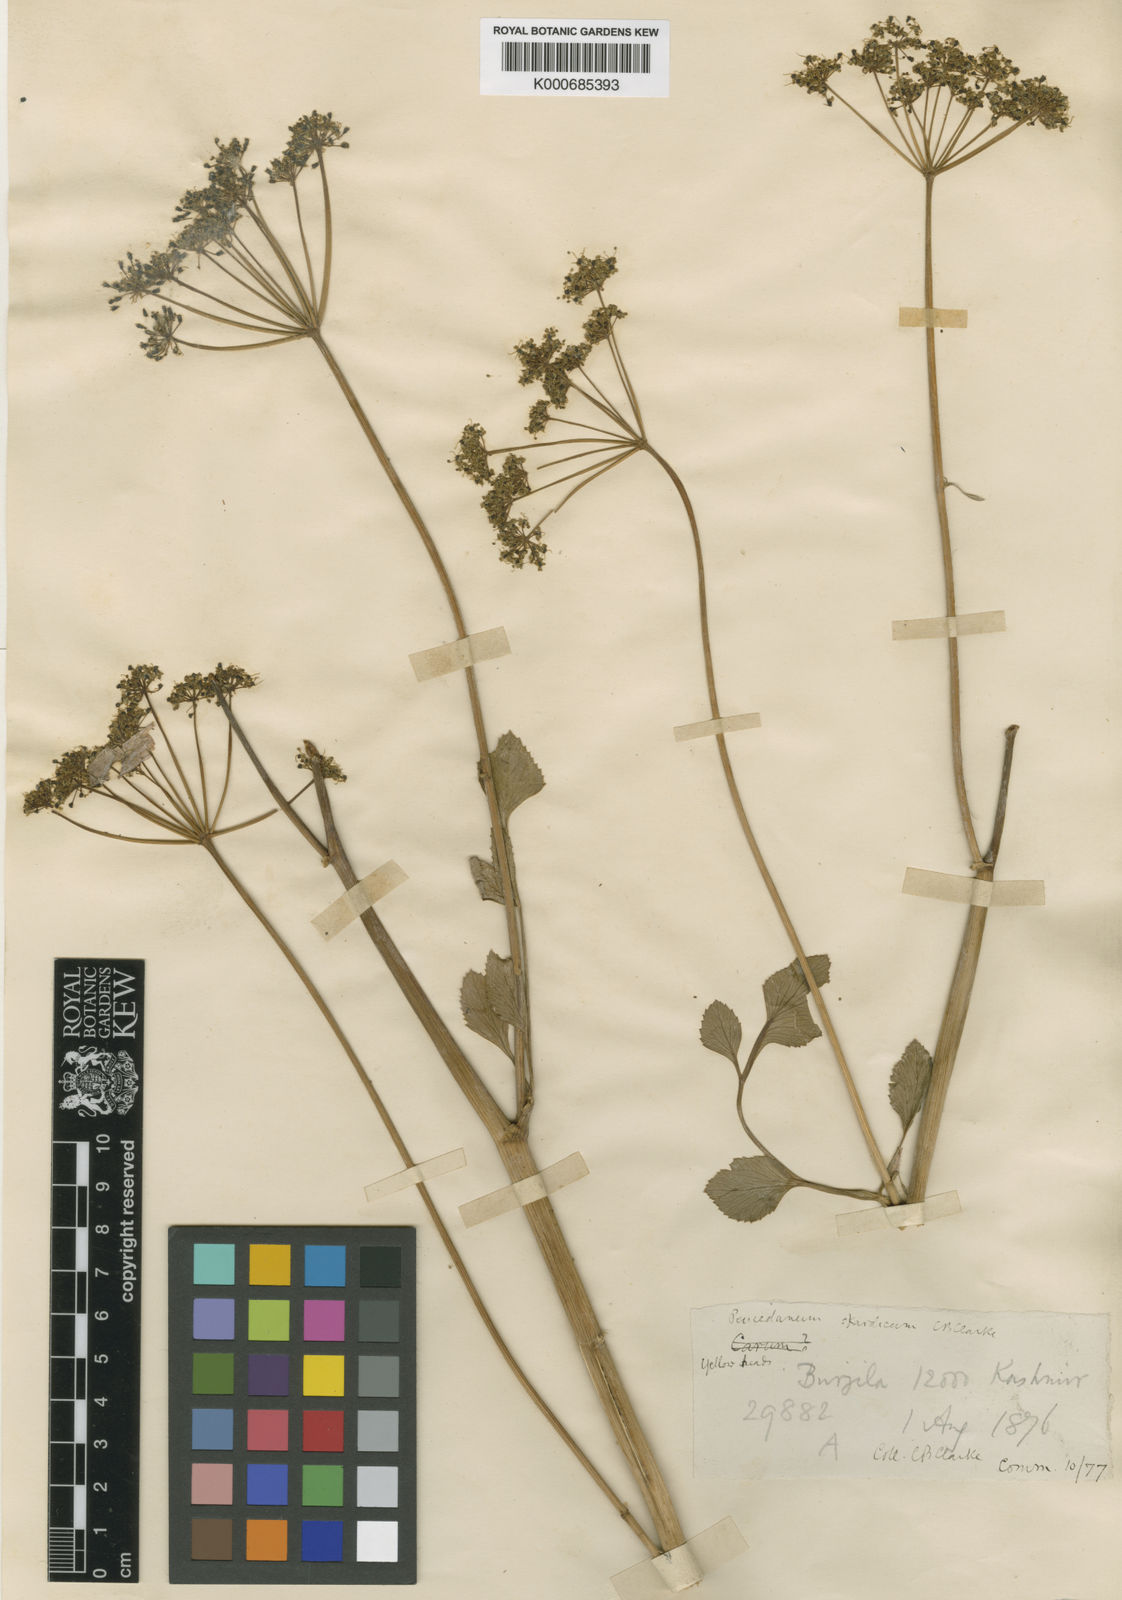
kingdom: Plantae
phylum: Tracheophyta
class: Magnoliopsida
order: Apiales
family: Apiaceae
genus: Angelica
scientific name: Angelica ternata
